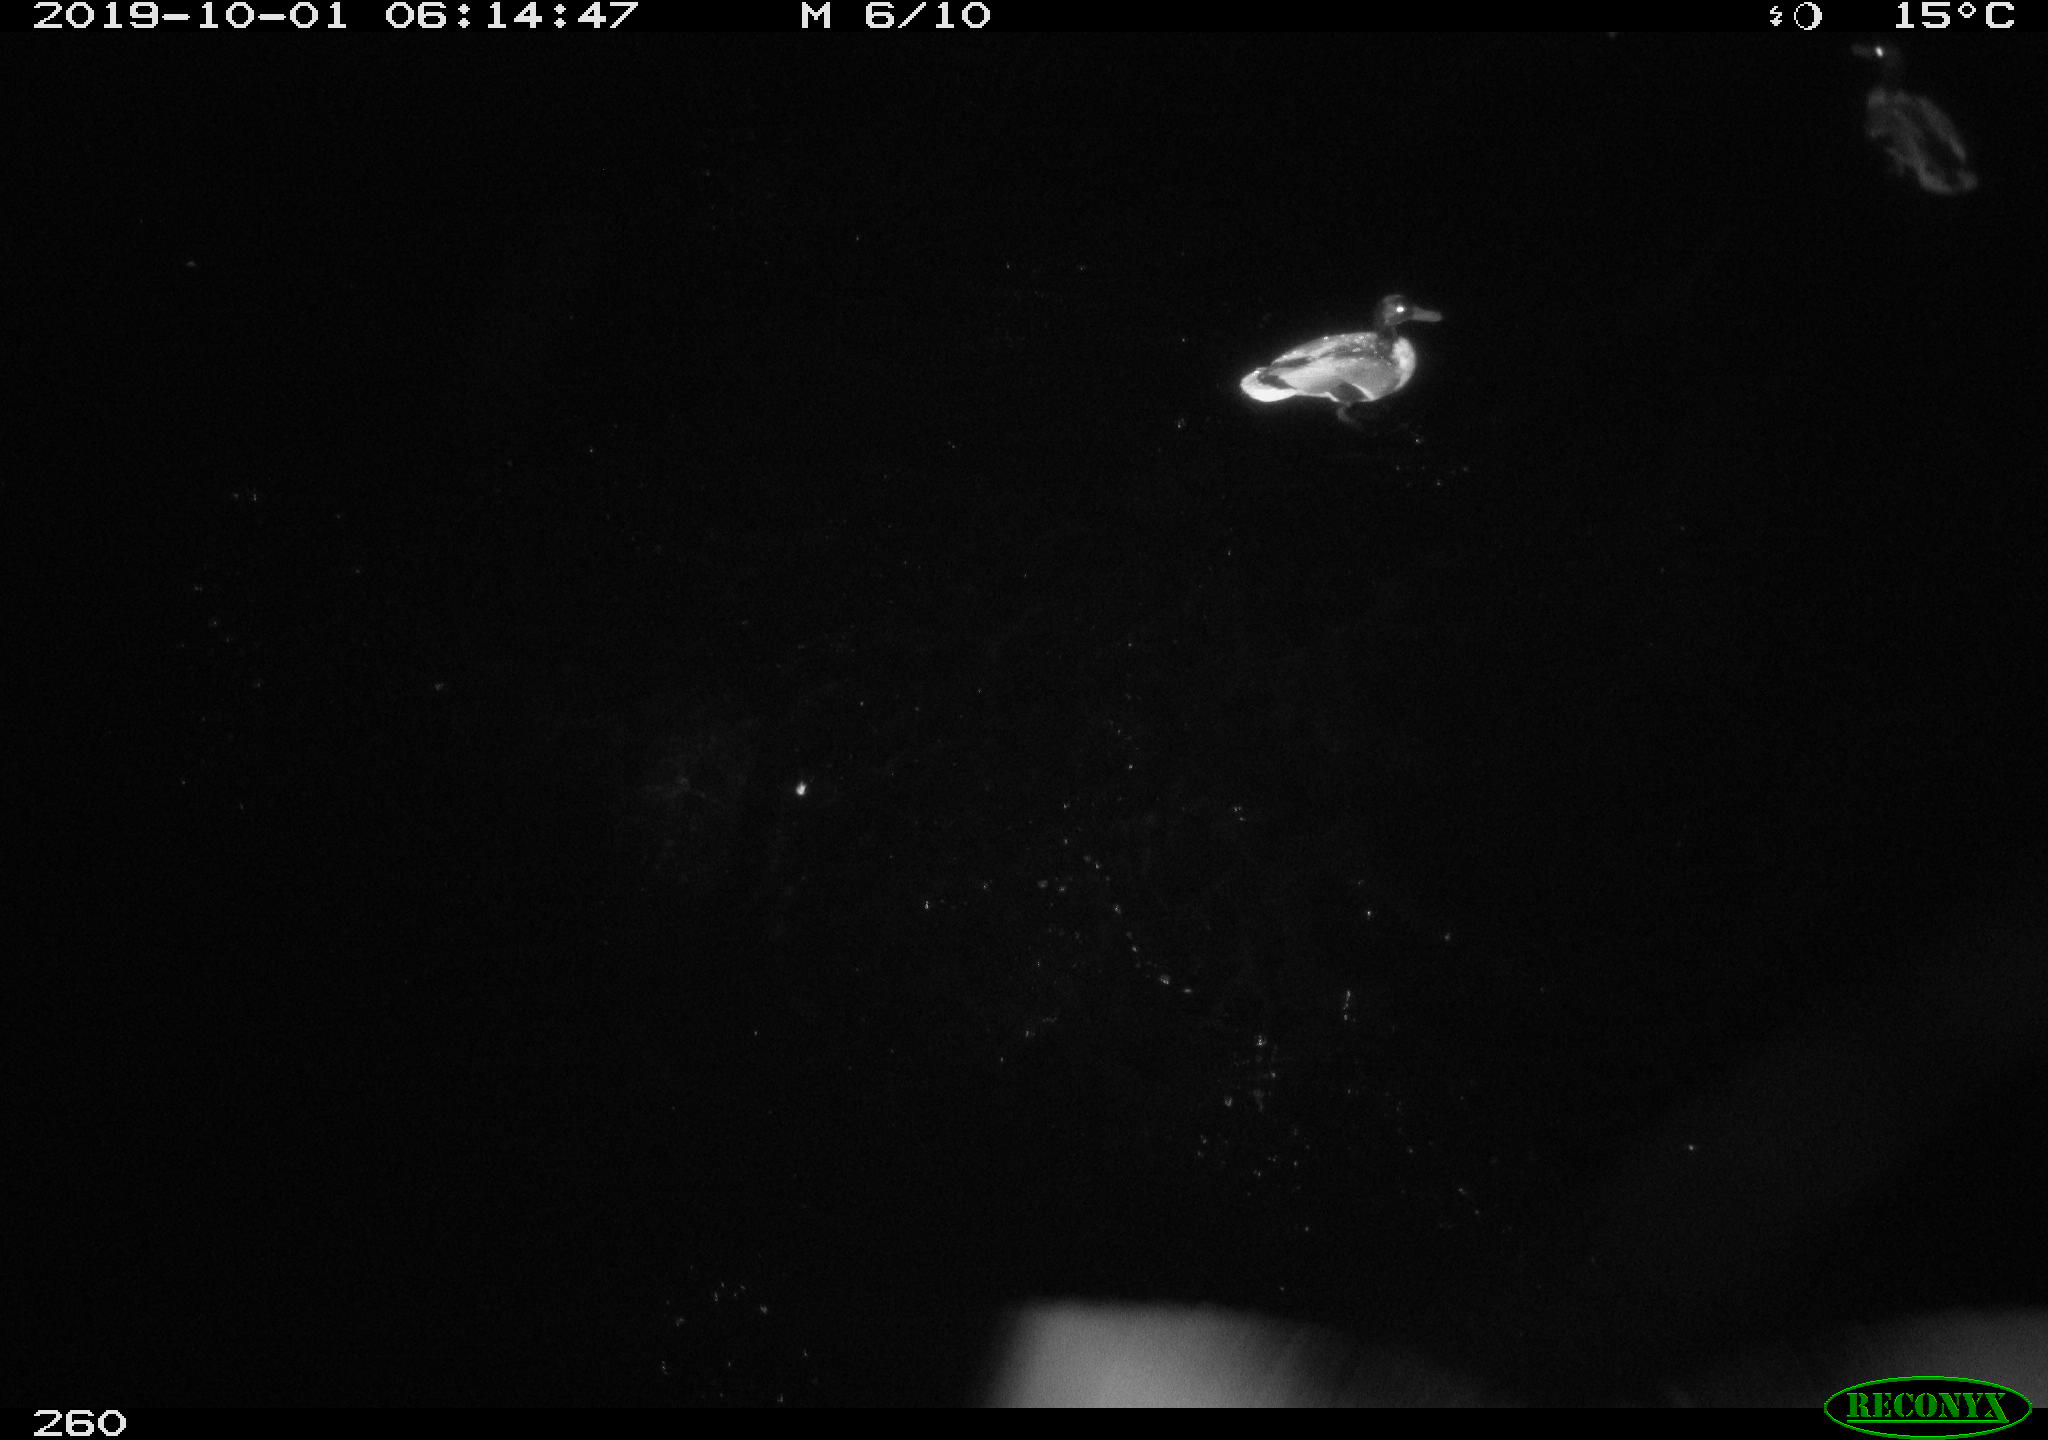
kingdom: Animalia
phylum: Chordata
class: Aves
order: Anseriformes
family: Anatidae
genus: Anas
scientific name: Anas platyrhynchos
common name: Mallard
